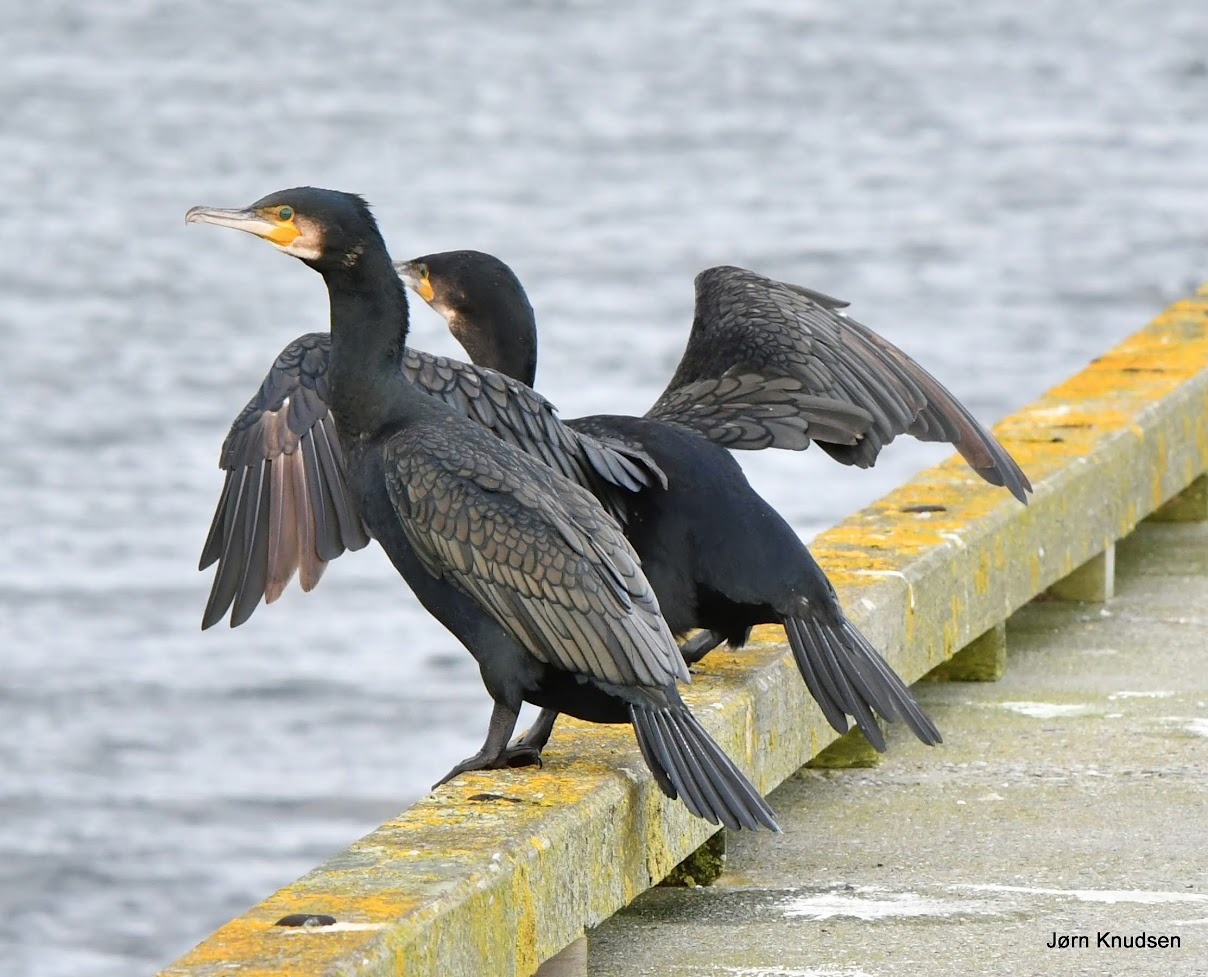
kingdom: Animalia
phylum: Chordata
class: Aves
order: Suliformes
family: Phalacrocoracidae
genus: Phalacrocorax
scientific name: Phalacrocorax carbo
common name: Skarv
